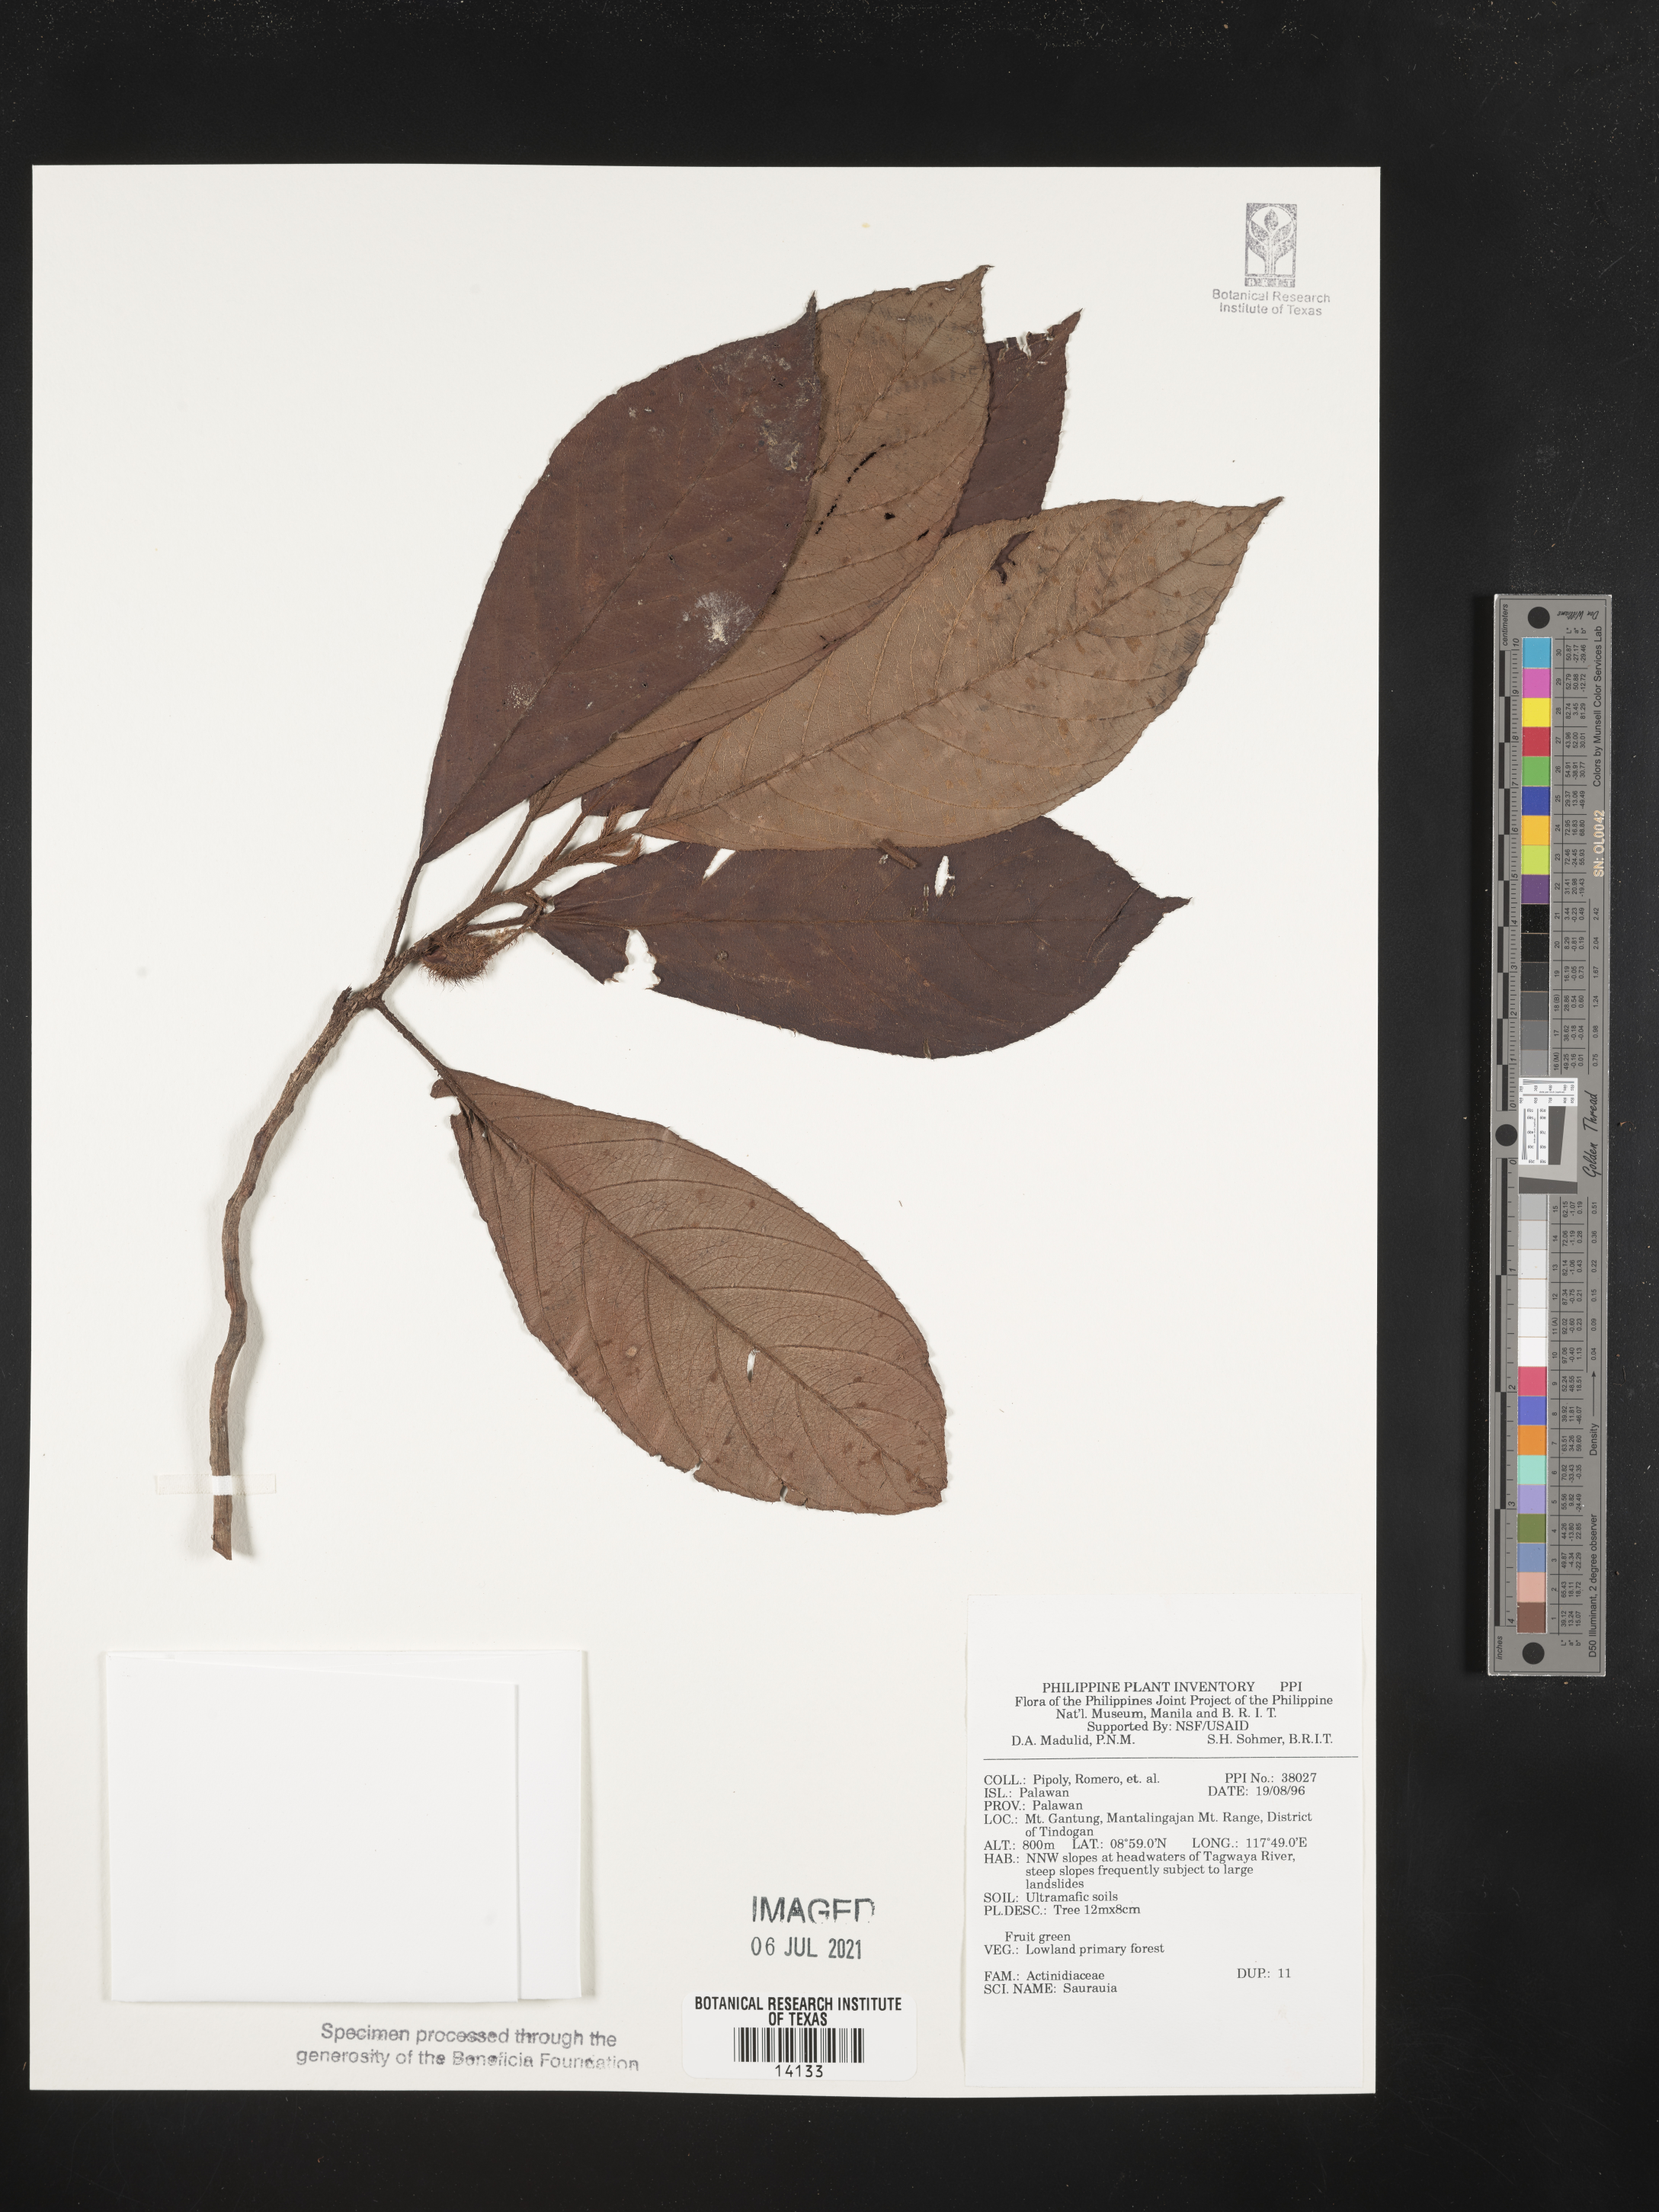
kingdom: Plantae
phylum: Tracheophyta
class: Magnoliopsida
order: Ericales
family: Actinidiaceae
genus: Saurauia
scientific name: Saurauia
